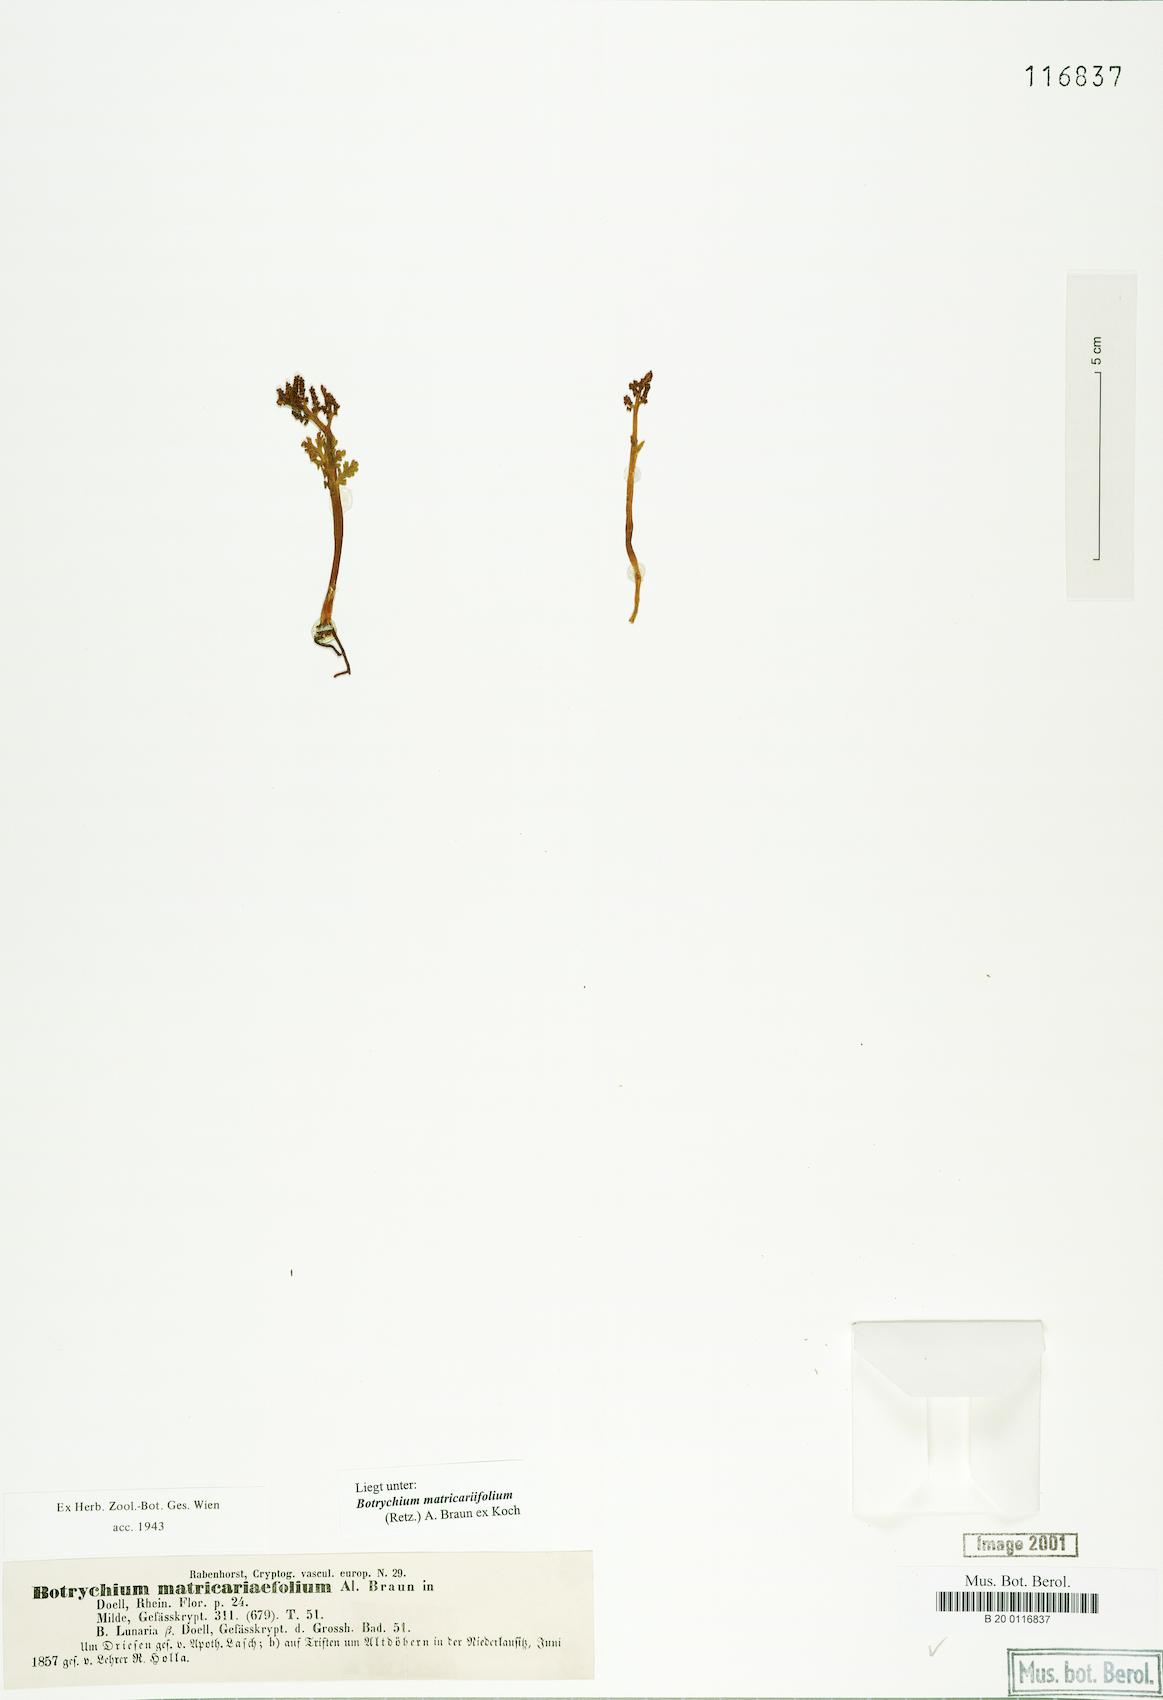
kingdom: Plantae
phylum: Tracheophyta
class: Polypodiopsida
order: Ophioglossales
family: Ophioglossaceae
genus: Botrychium
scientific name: Botrychium matricariifolium
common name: Branched moonwort
